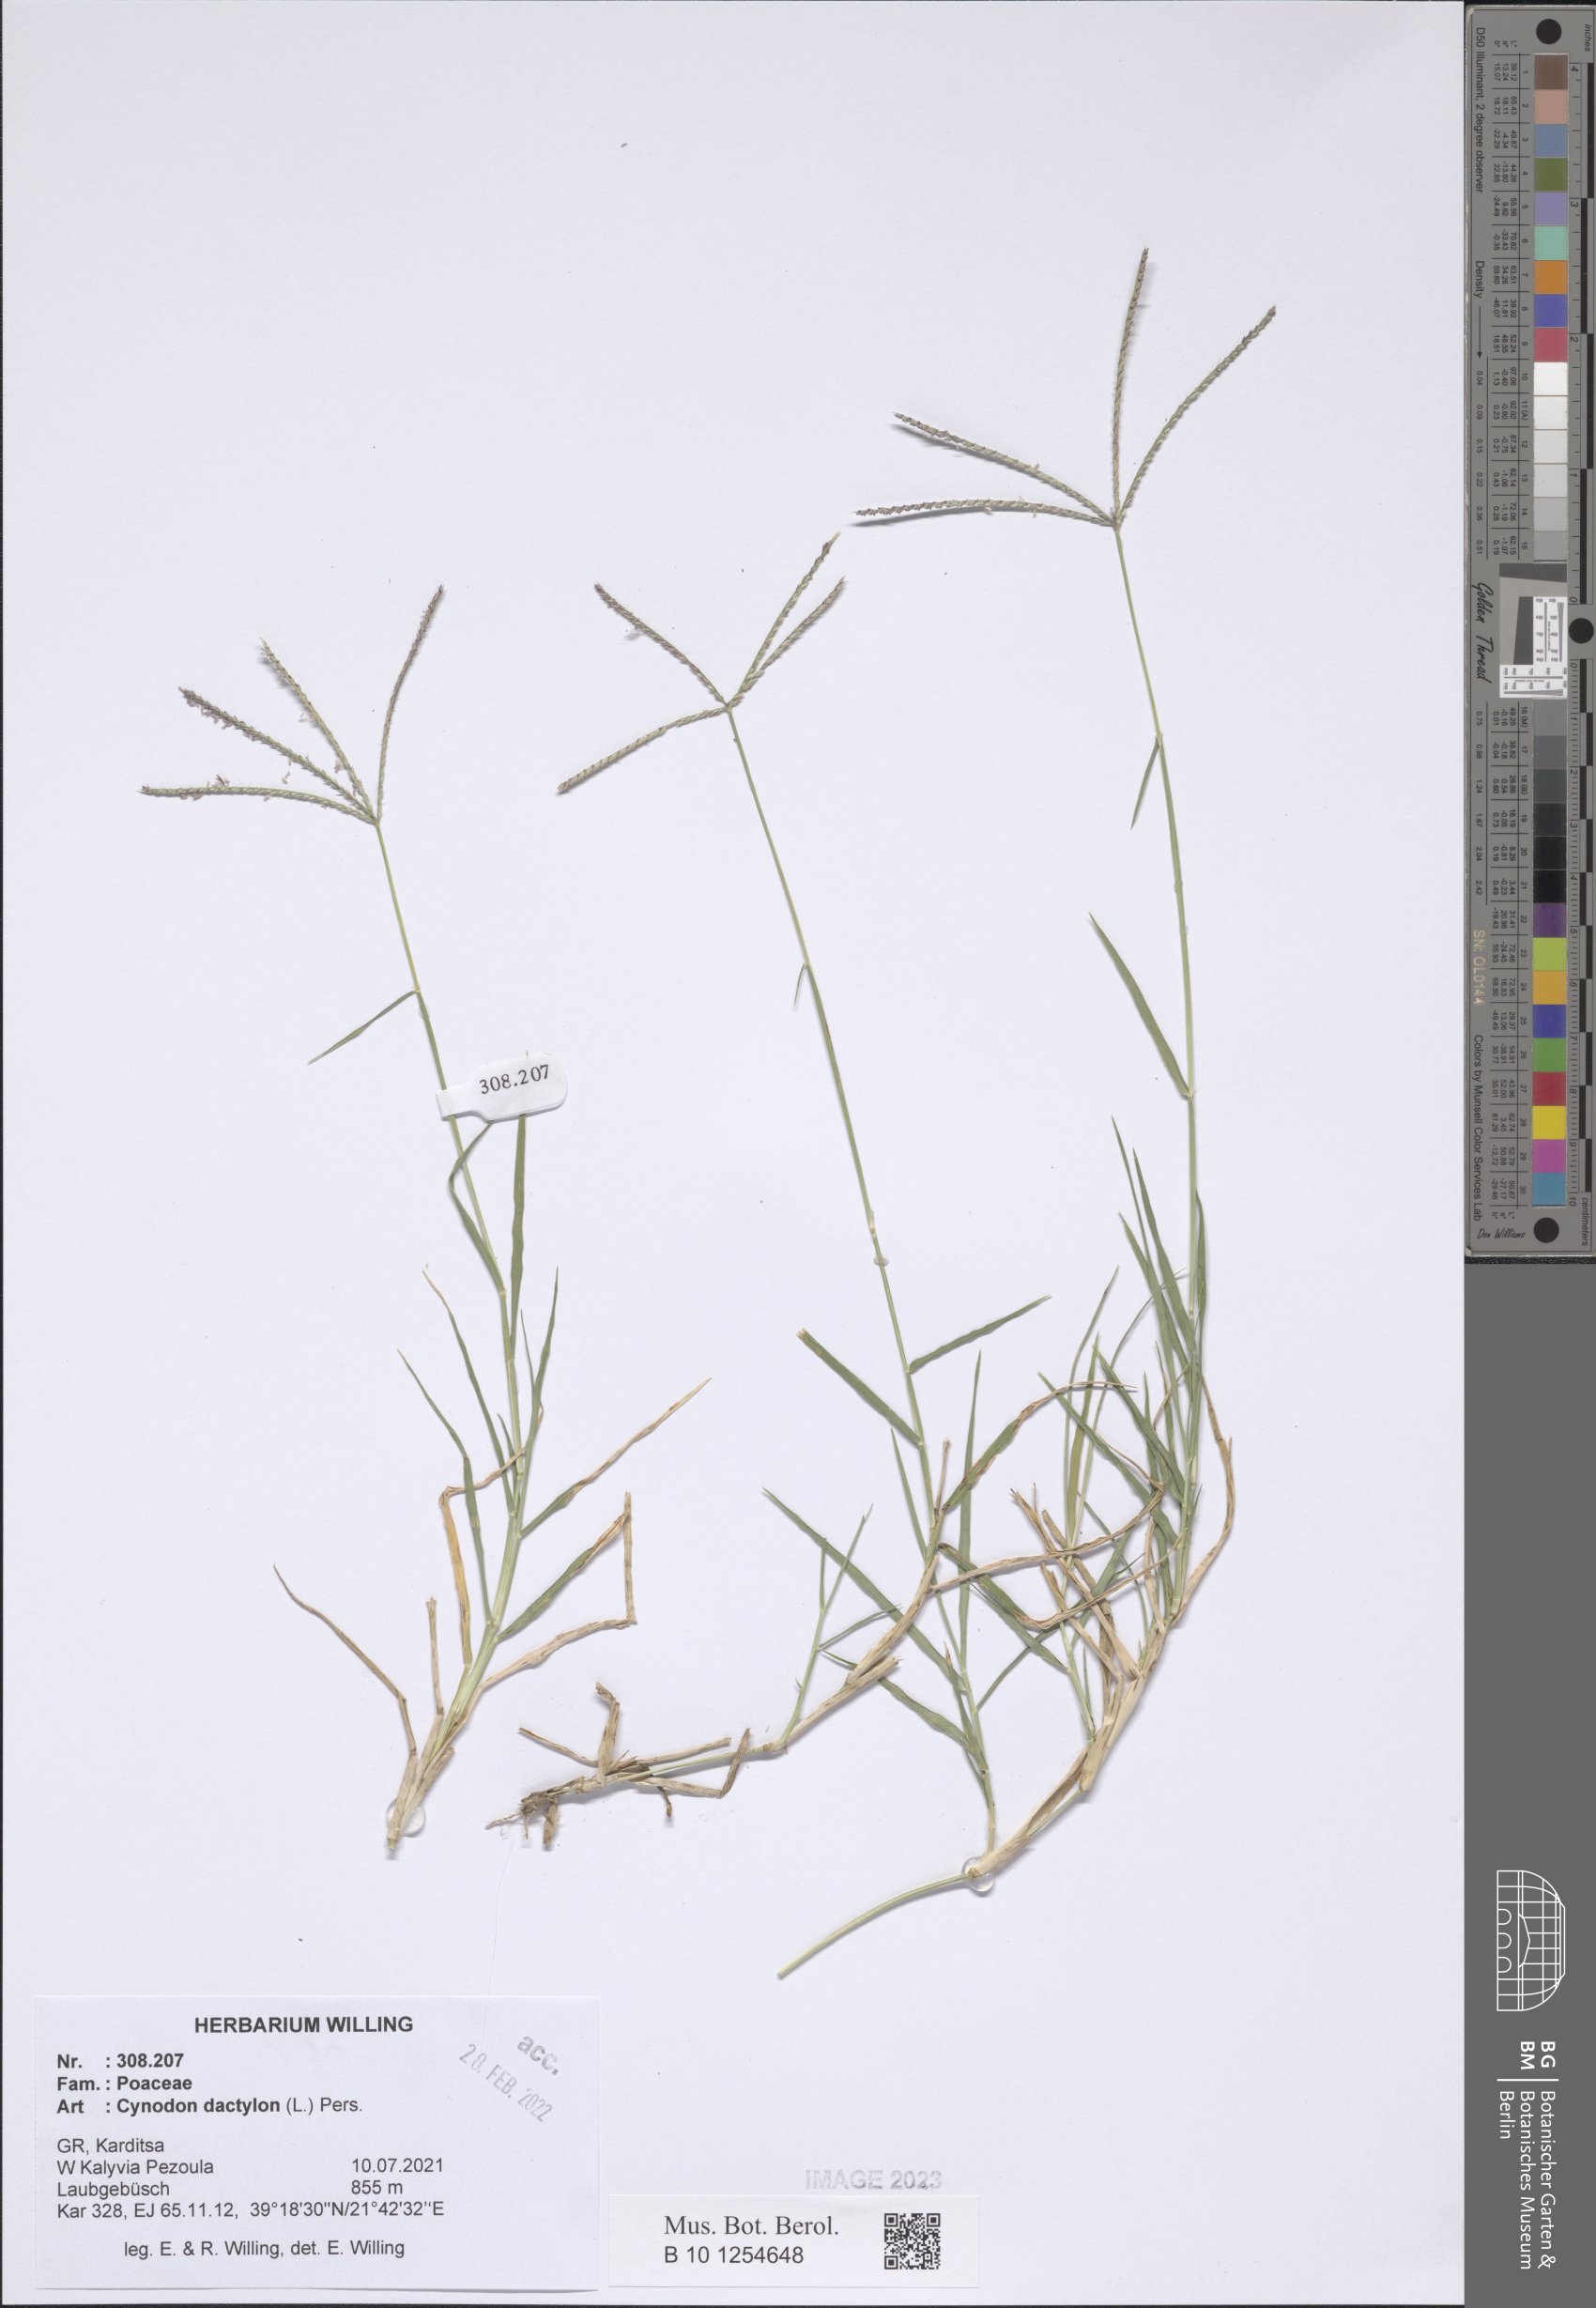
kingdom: Plantae
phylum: Tracheophyta
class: Liliopsida
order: Poales
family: Poaceae
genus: Cynodon
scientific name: Cynodon dactylon
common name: Bermuda grass
